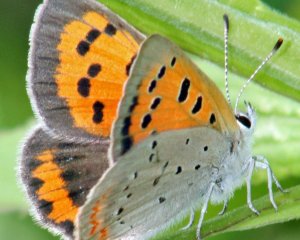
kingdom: Animalia
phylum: Arthropoda
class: Insecta
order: Lepidoptera
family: Lycaenidae
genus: Lycaena
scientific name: Lycaena phlaeas
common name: American Copper
